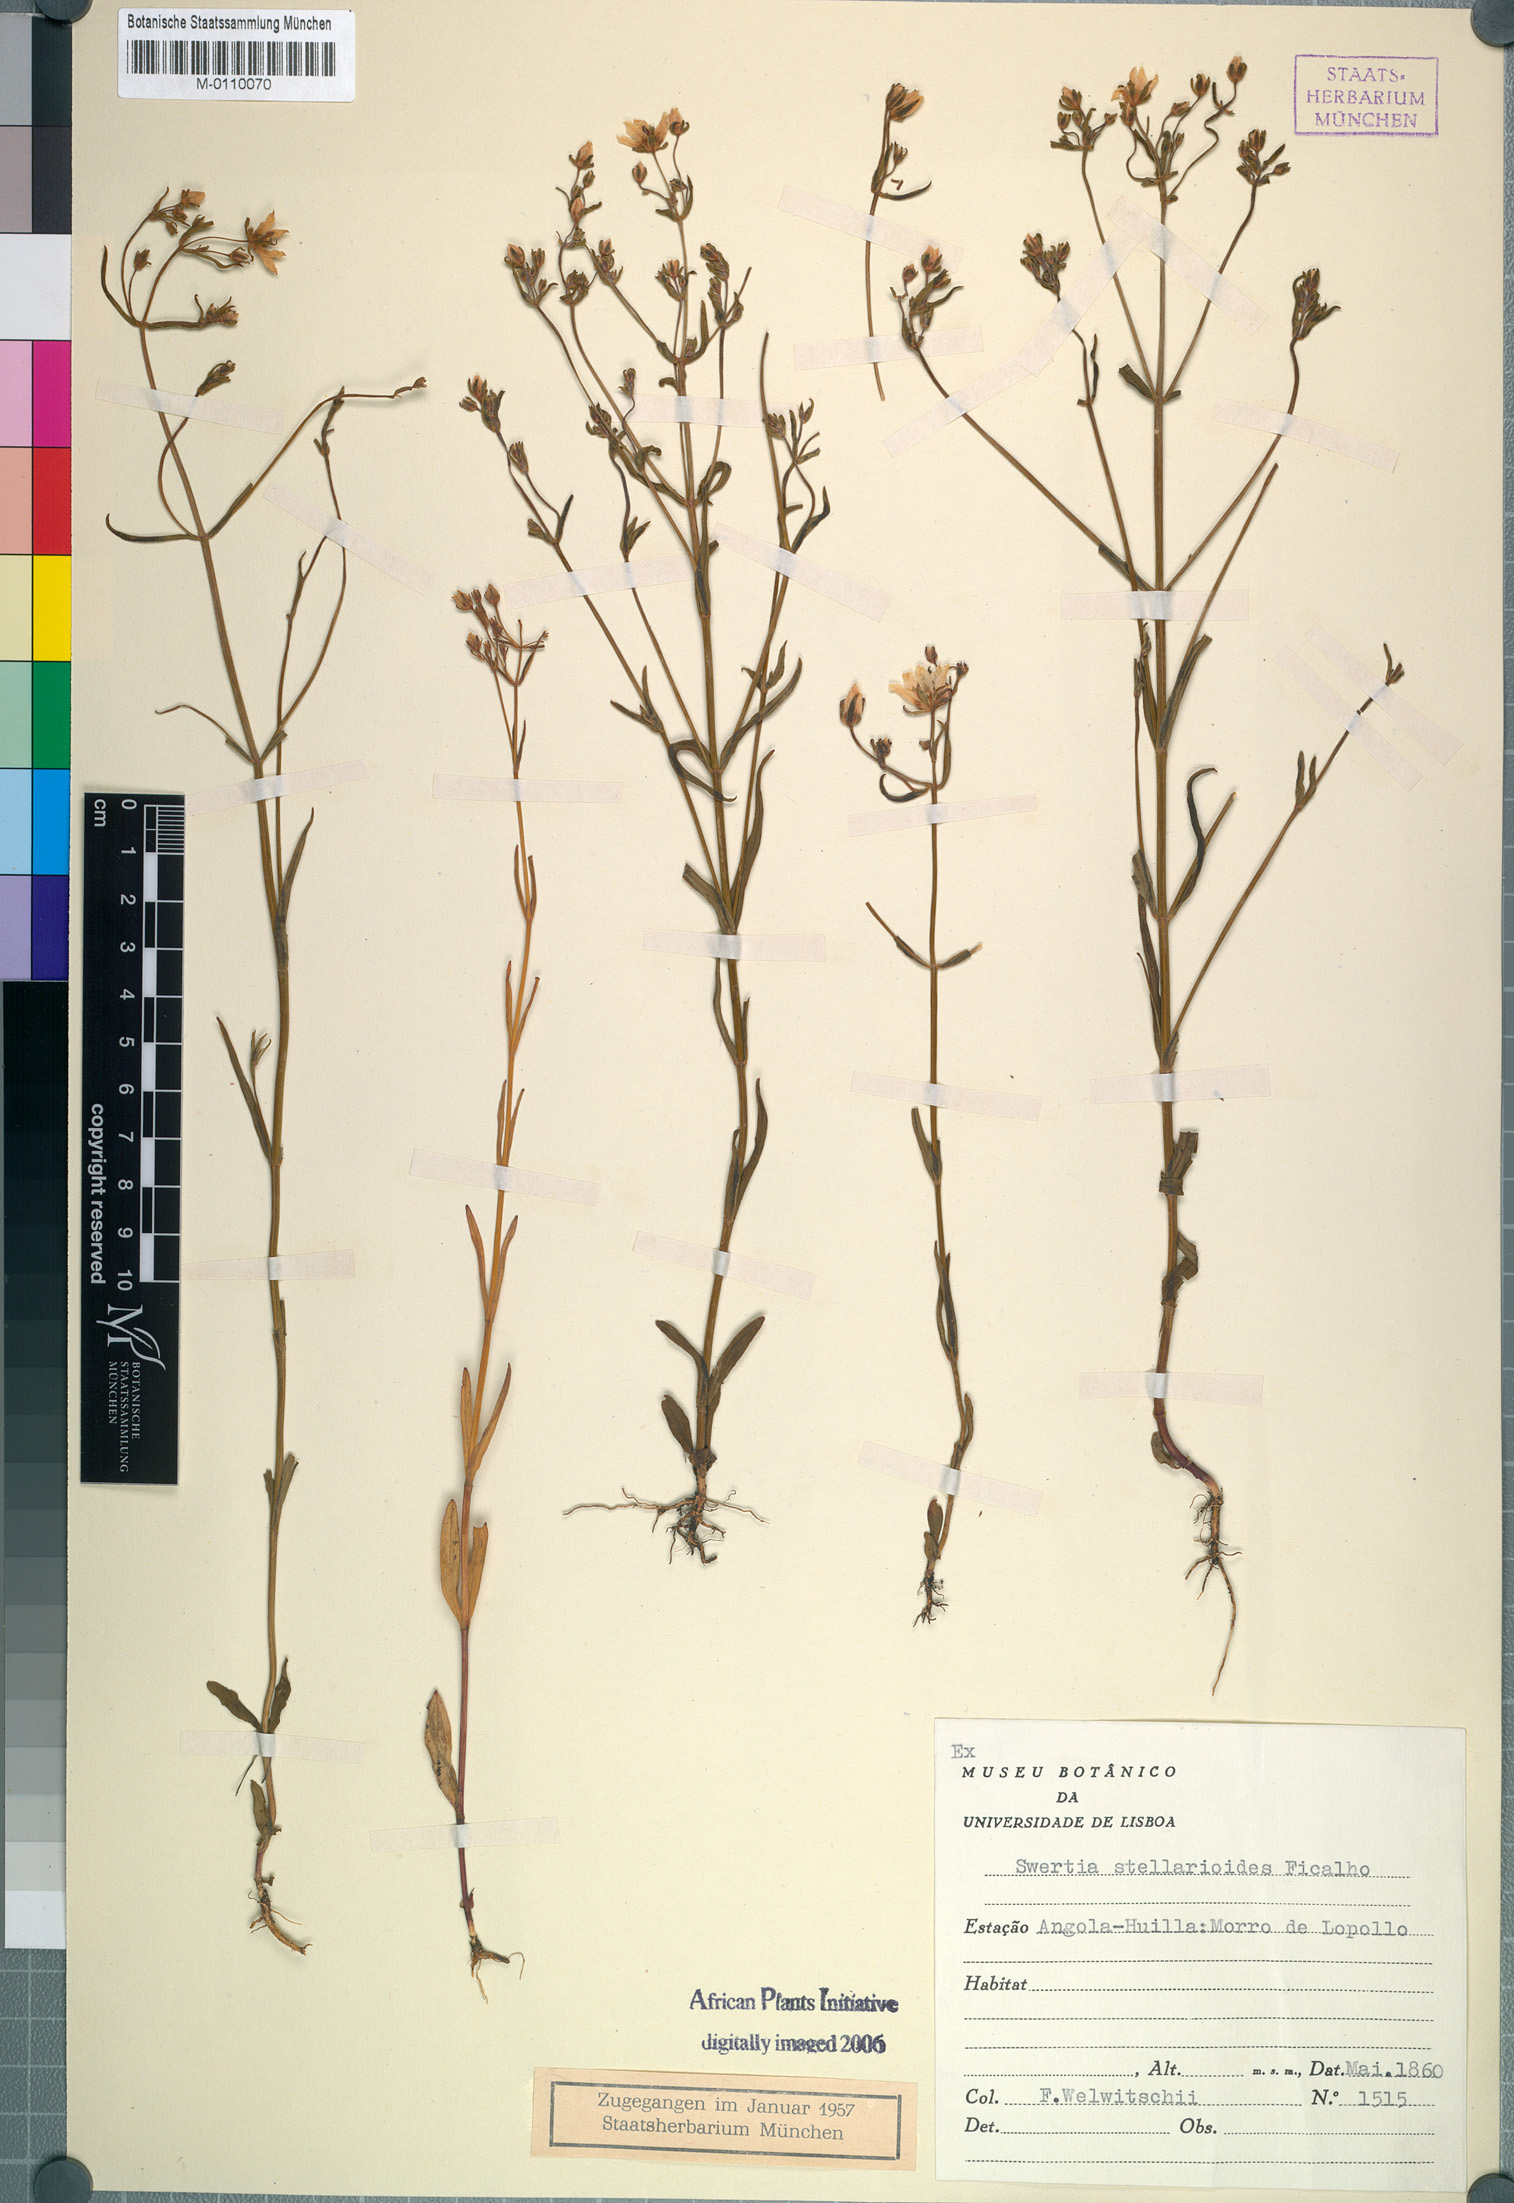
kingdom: Plantae
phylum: Tracheophyta
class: Magnoliopsida
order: Gentianales
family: Gentianaceae
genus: Swertia
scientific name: Swertia welwitschii
